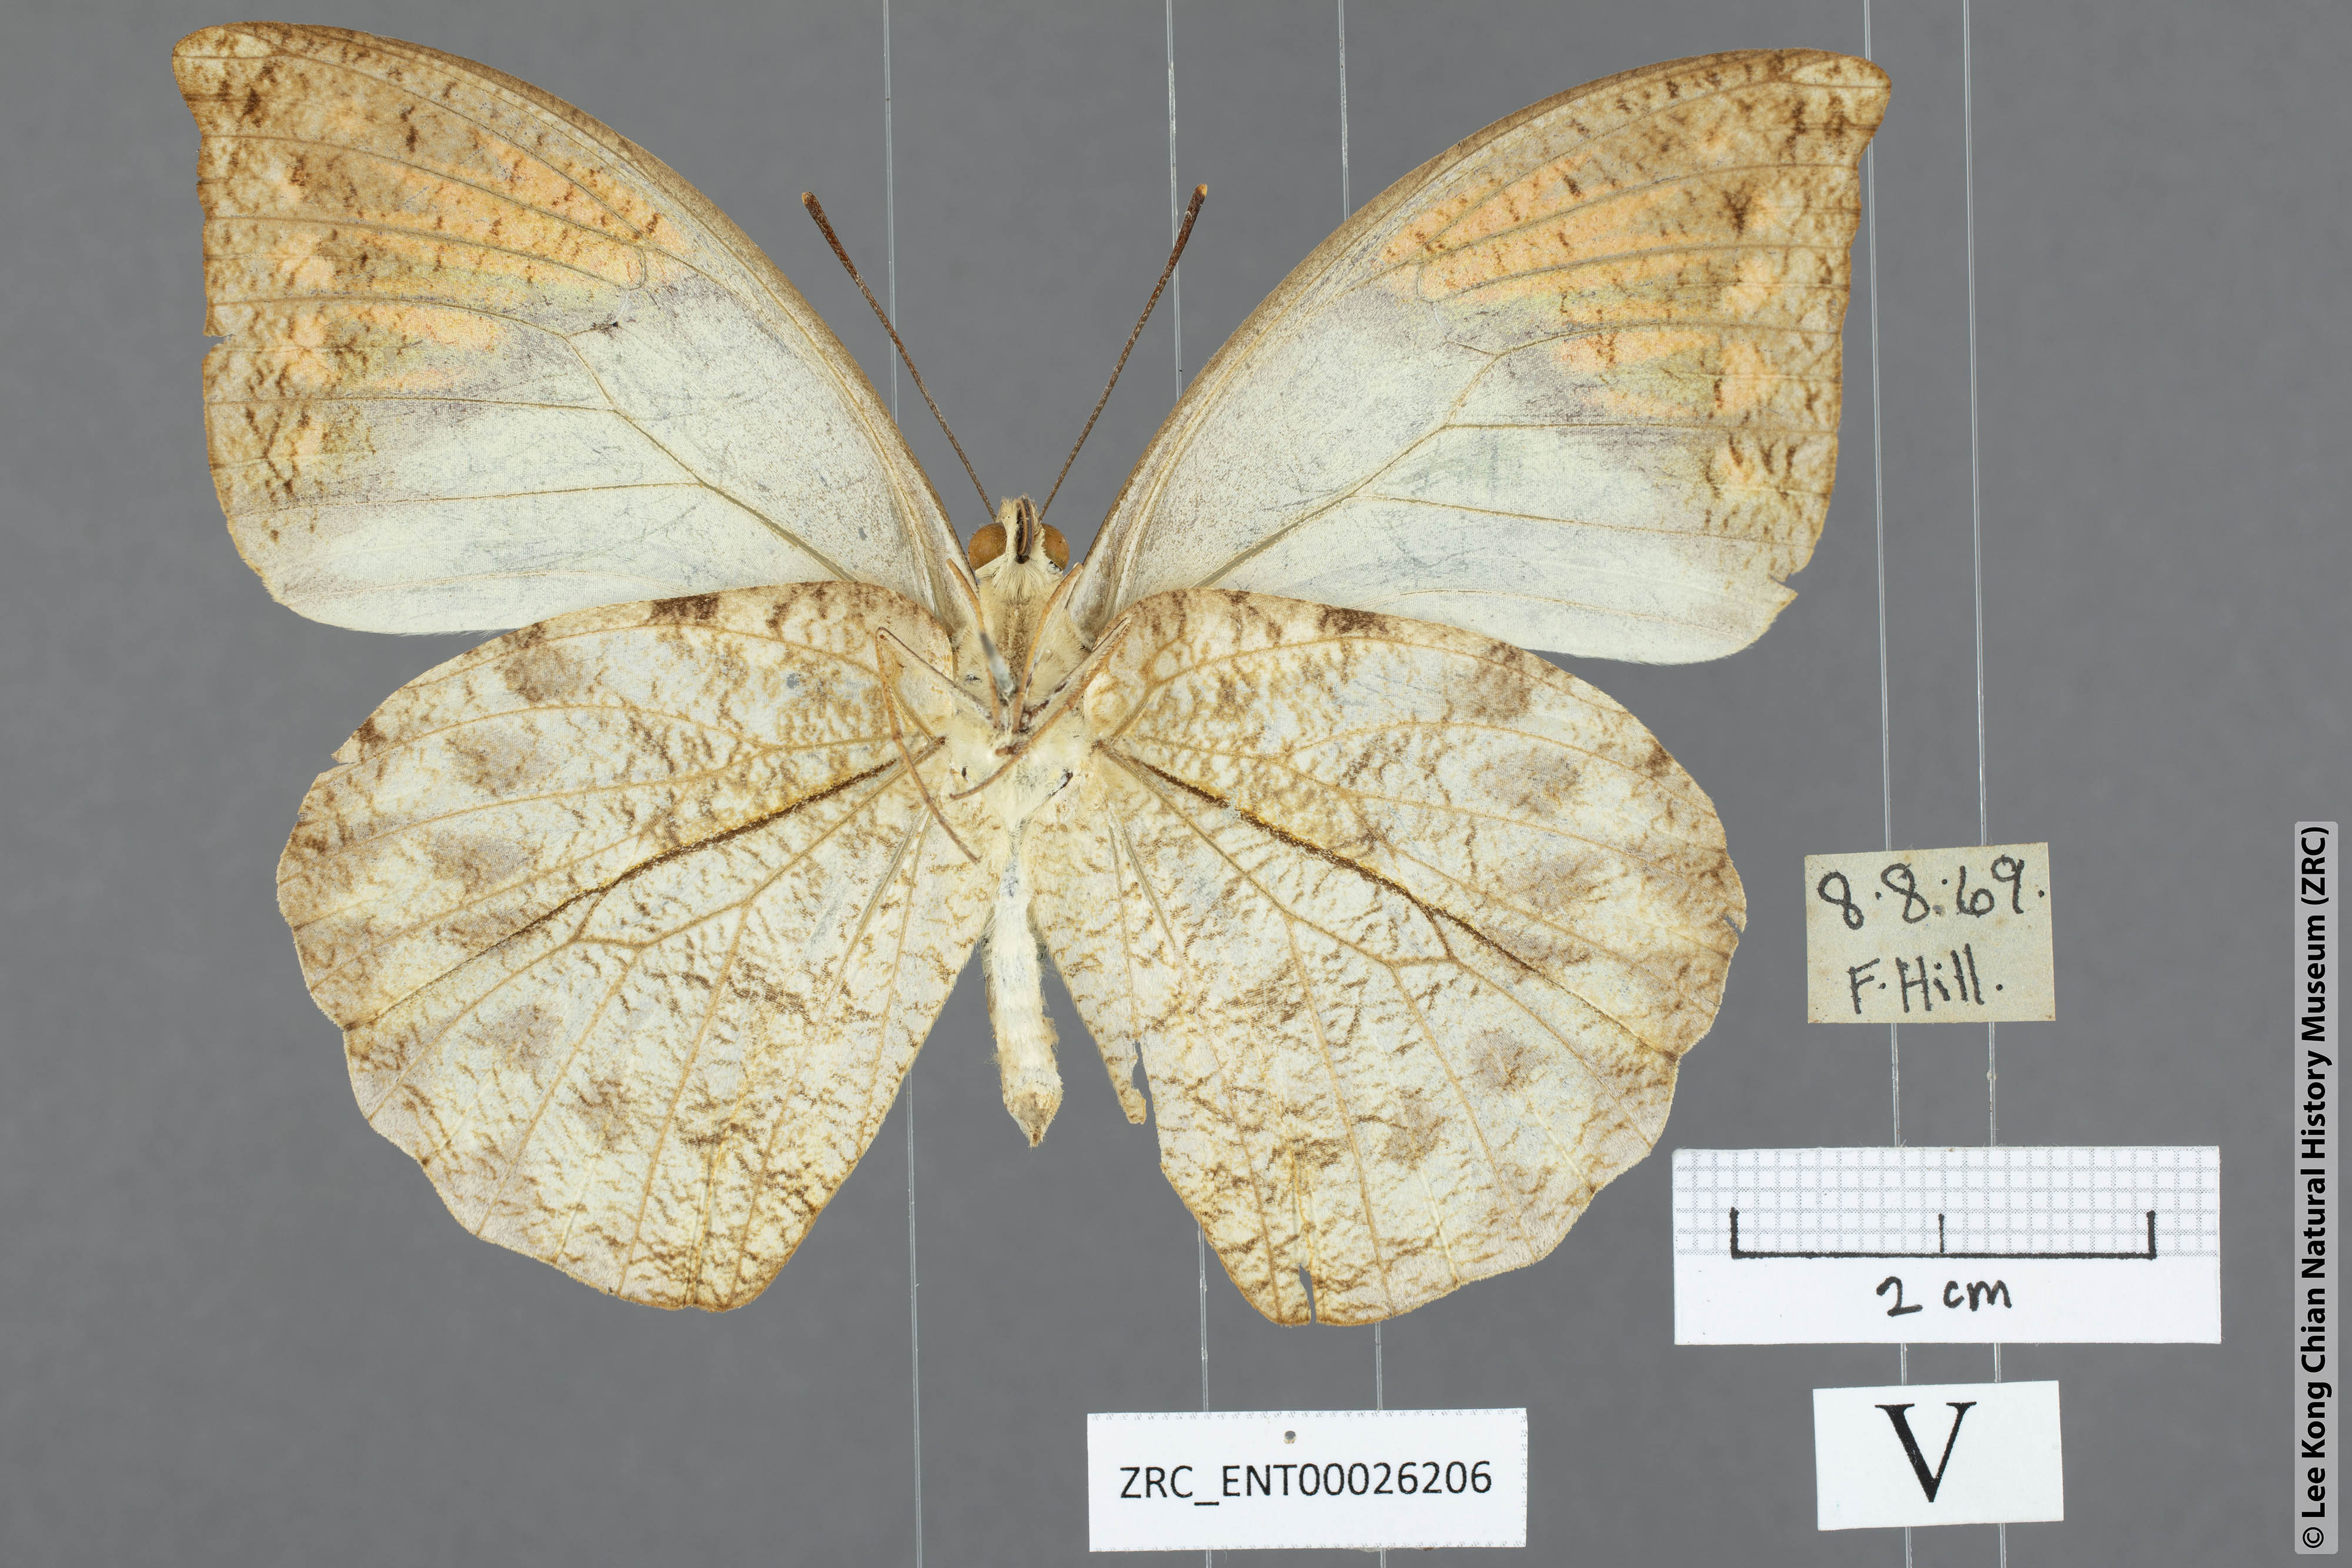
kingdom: Animalia
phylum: Arthropoda
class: Insecta
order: Lepidoptera
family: Pieridae
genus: Hebomoia
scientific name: Hebomoia glaucippe
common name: Great orange tip
